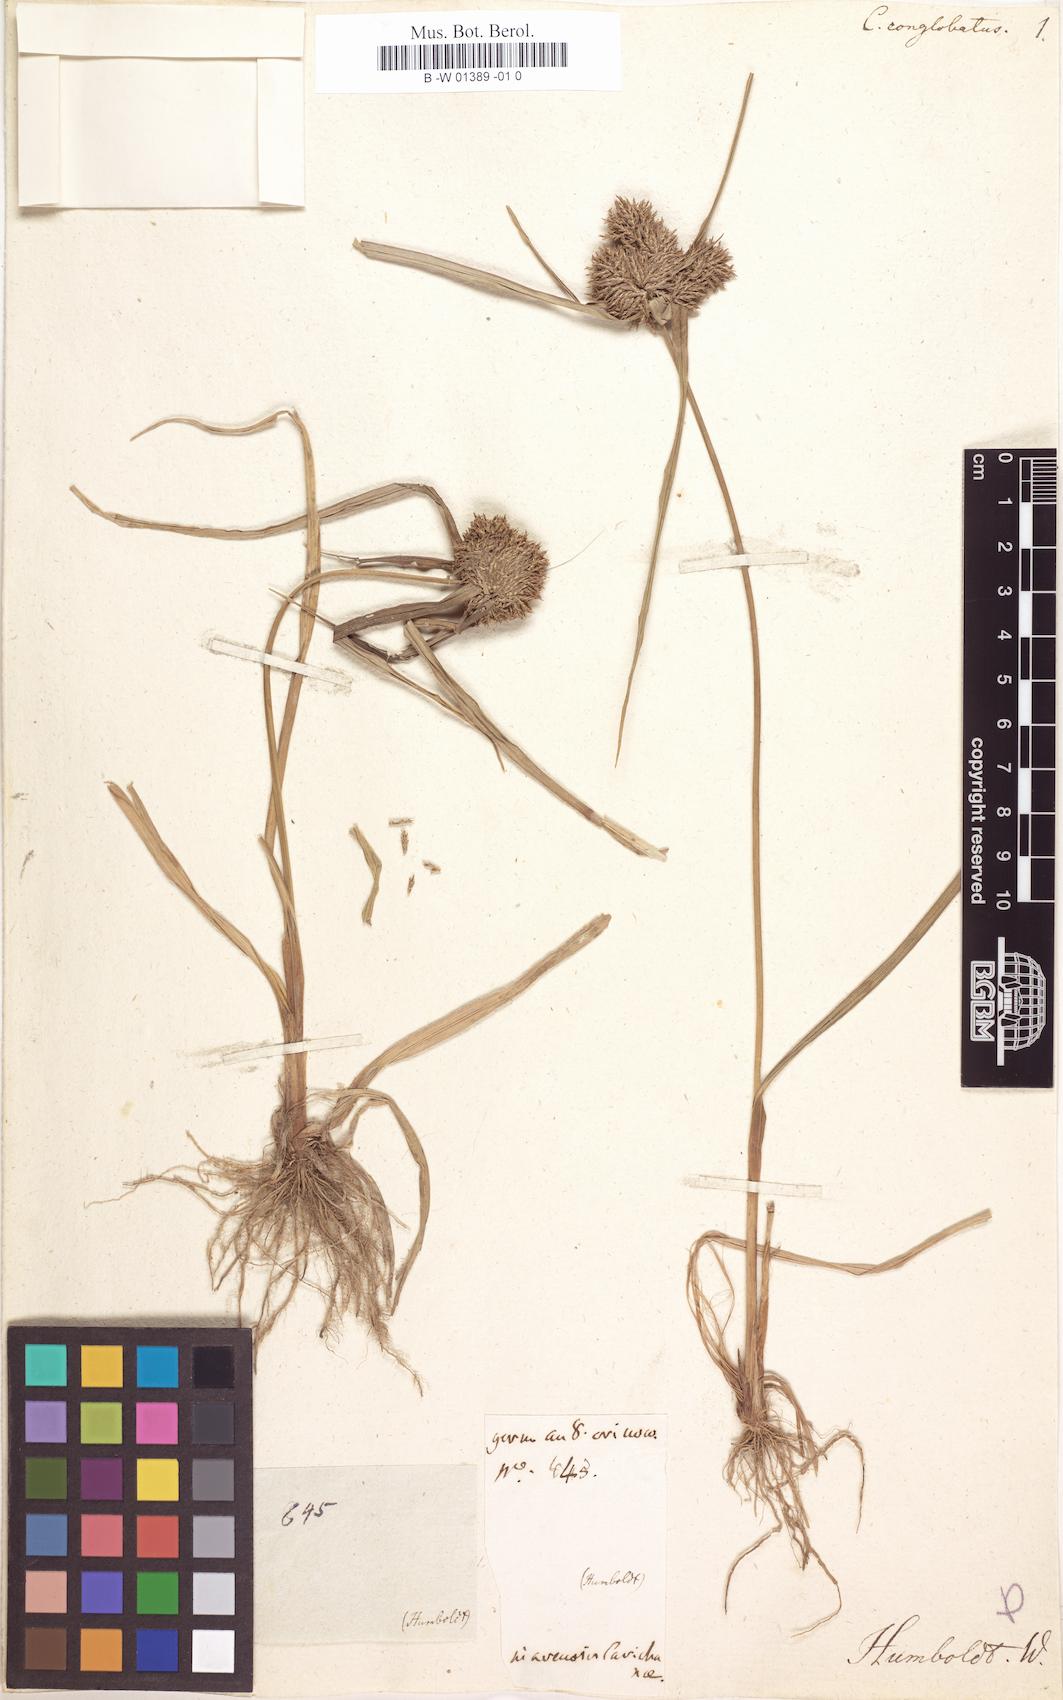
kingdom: Plantae
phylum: Tracheophyta
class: Liliopsida
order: Poales
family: Cyperaceae
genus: Cyperus
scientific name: Cyperus conglobatus
